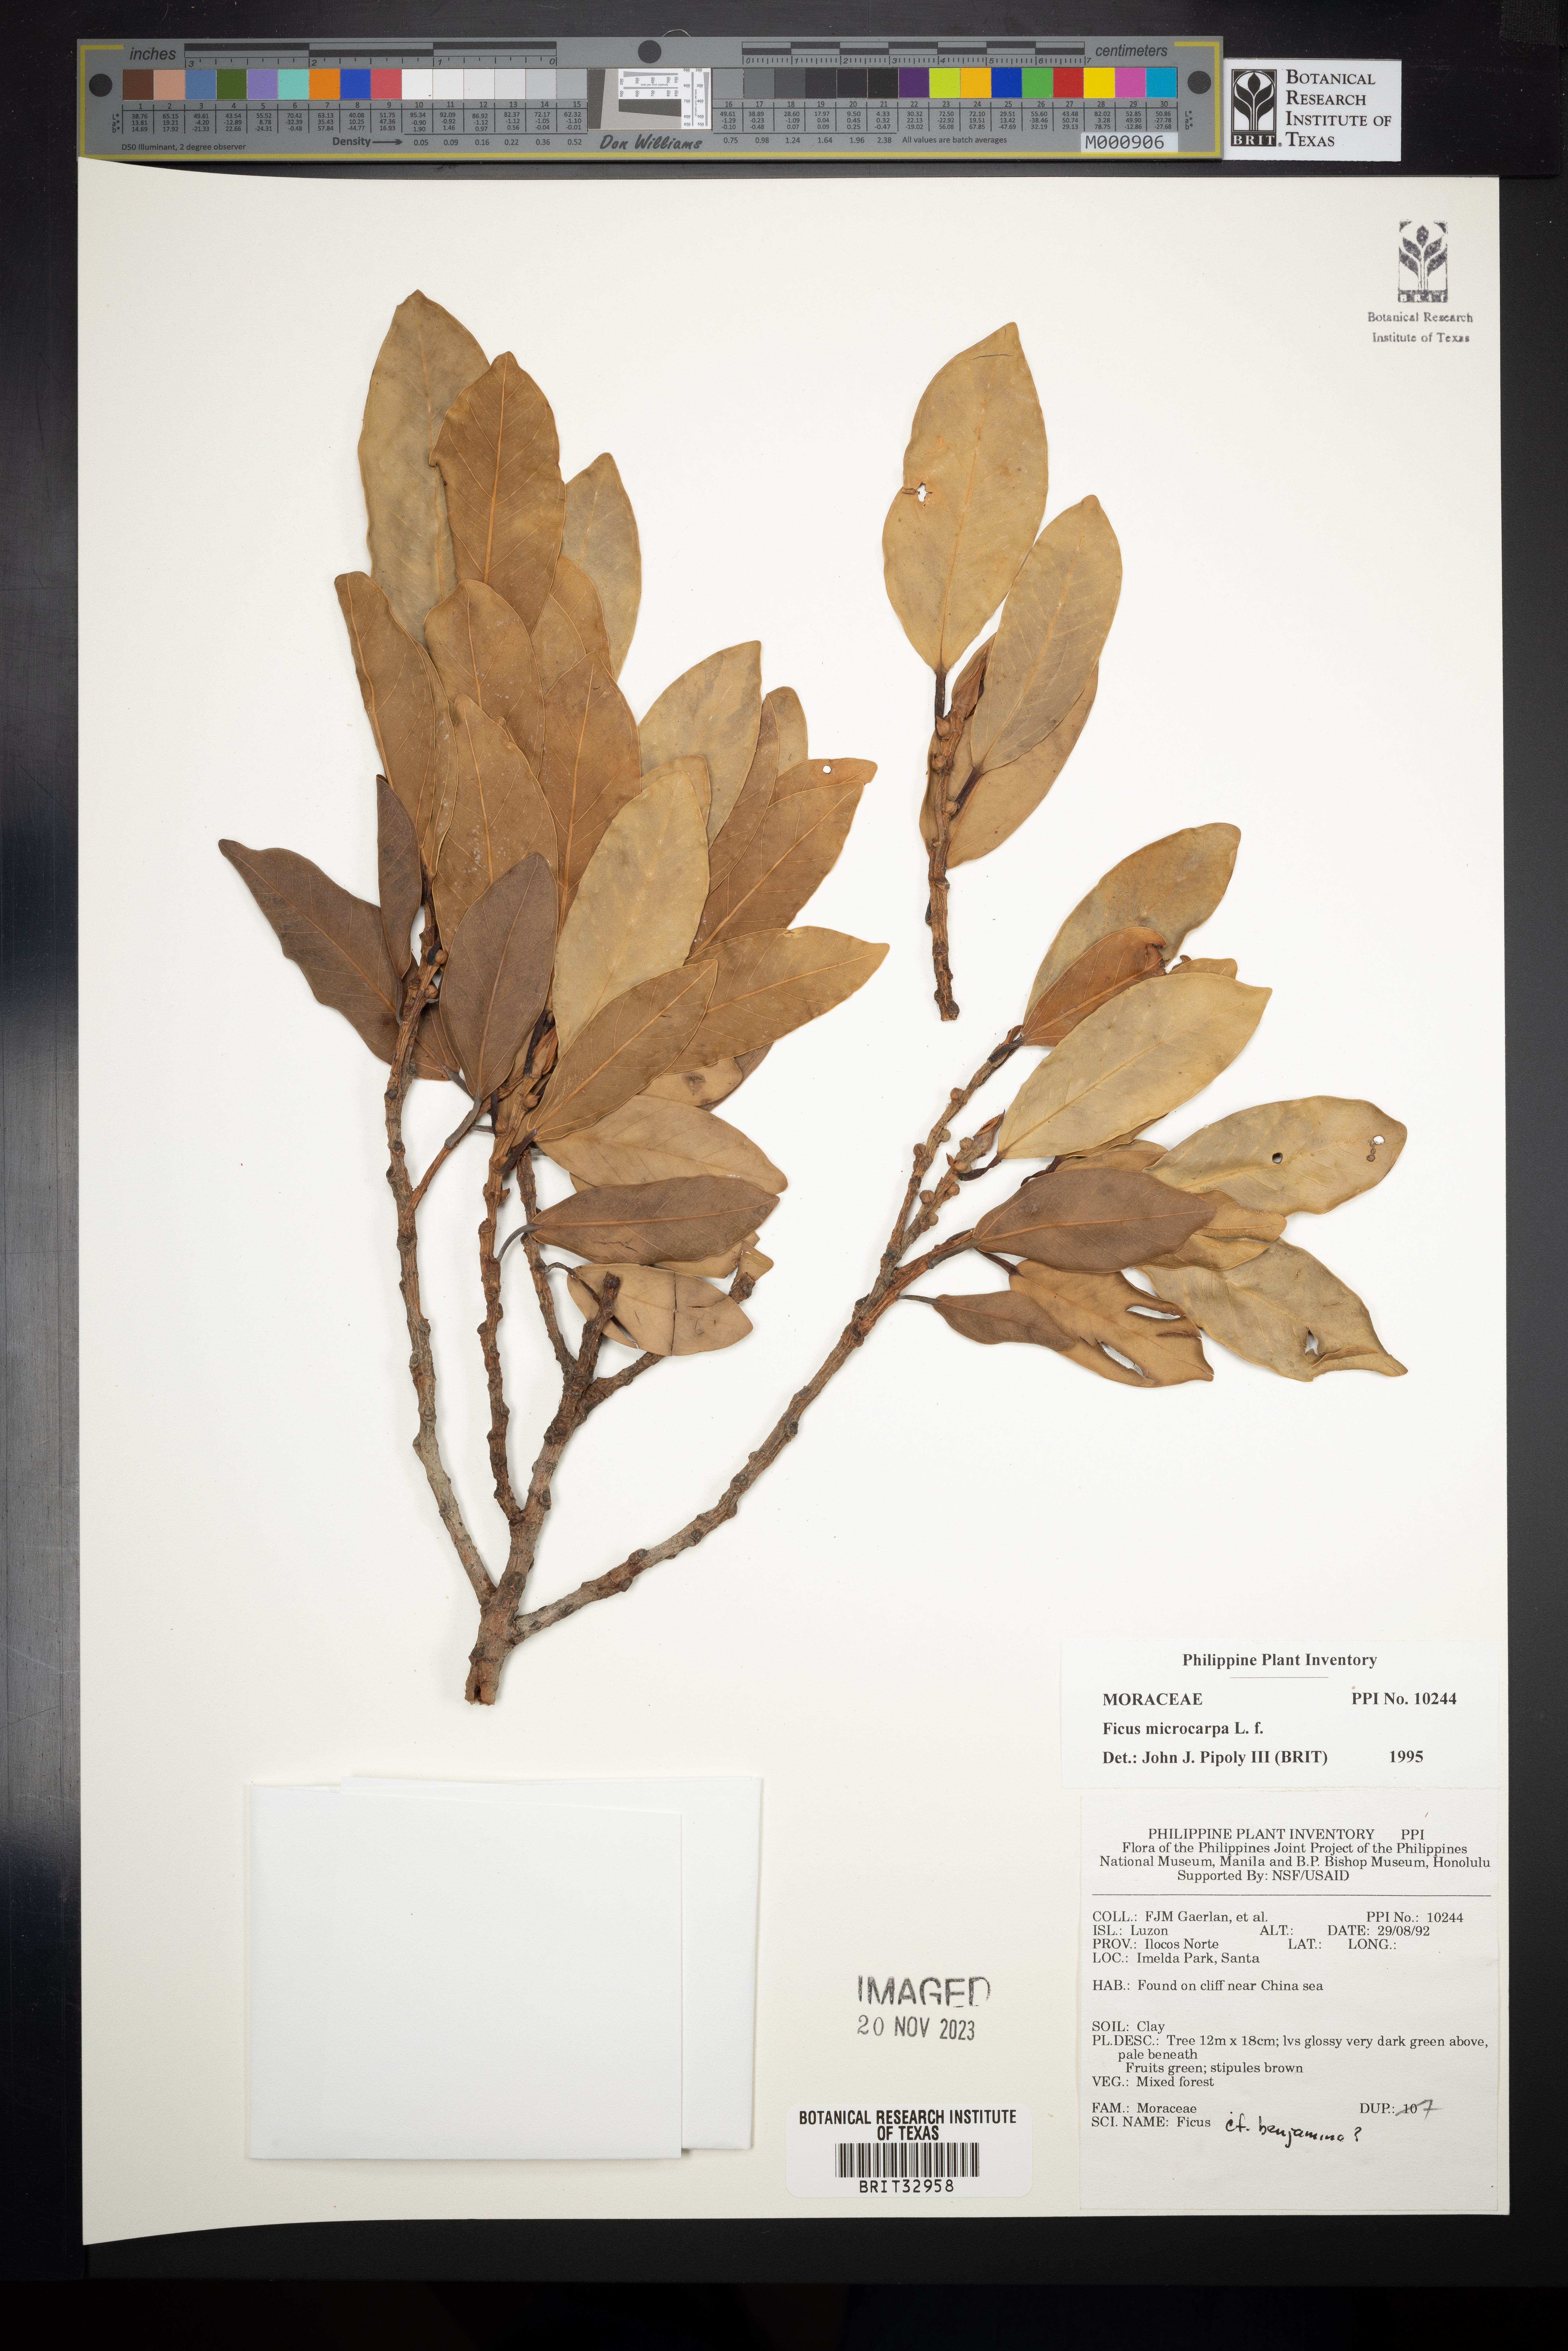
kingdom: Plantae
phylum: Tracheophyta
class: Magnoliopsida
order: Rosales
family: Moraceae
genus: Ficus
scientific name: Ficus microcarpa
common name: Chinese banyan
